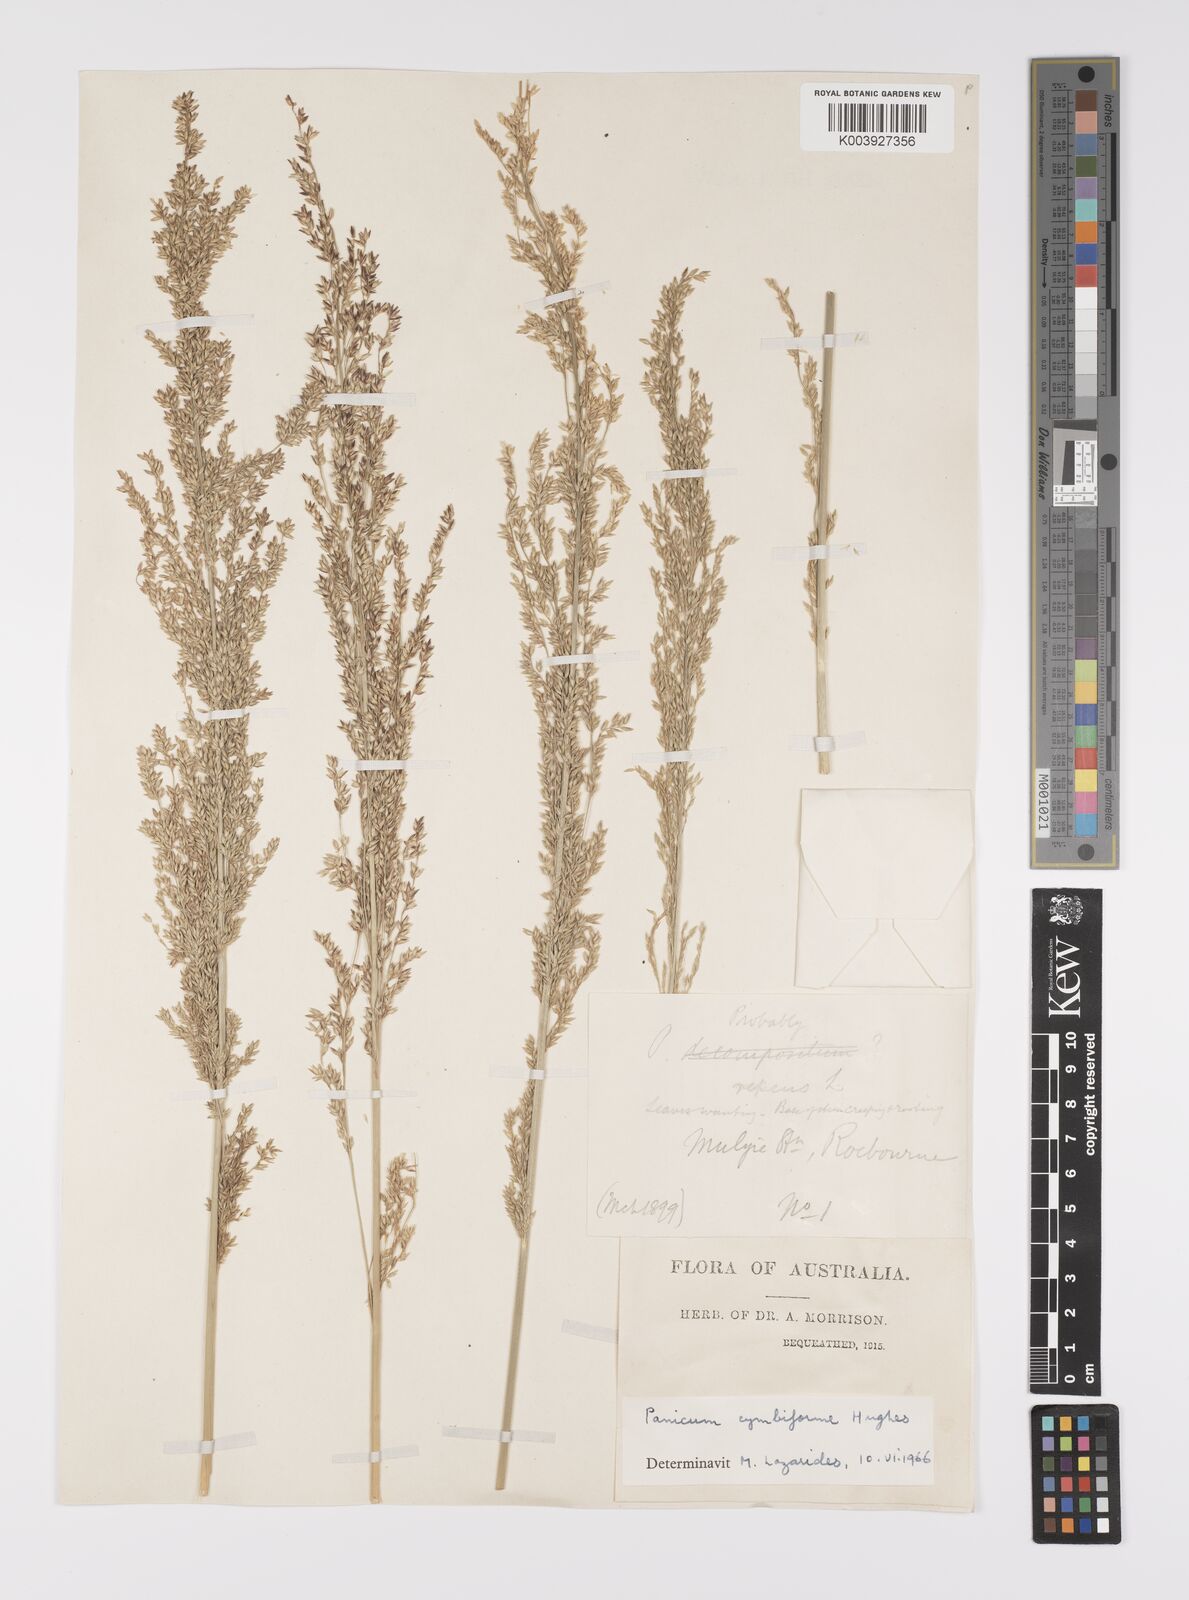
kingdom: Plantae
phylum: Tracheophyta
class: Liliopsida
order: Poales
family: Poaceae
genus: Whiteochloa
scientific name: Whiteochloa cymbiformis
